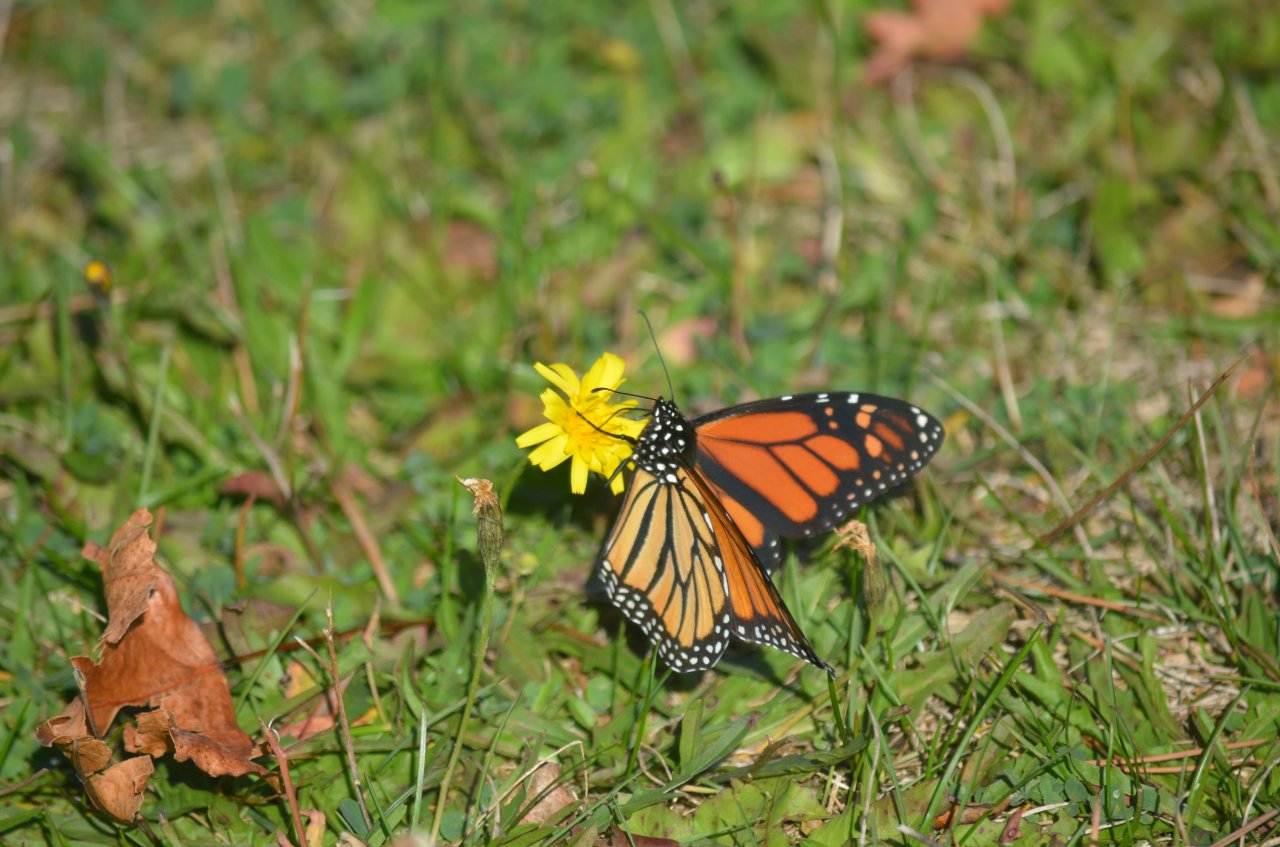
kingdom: Animalia
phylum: Arthropoda
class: Insecta
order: Lepidoptera
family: Nymphalidae
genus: Danaus
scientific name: Danaus plexippus
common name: Monarch
